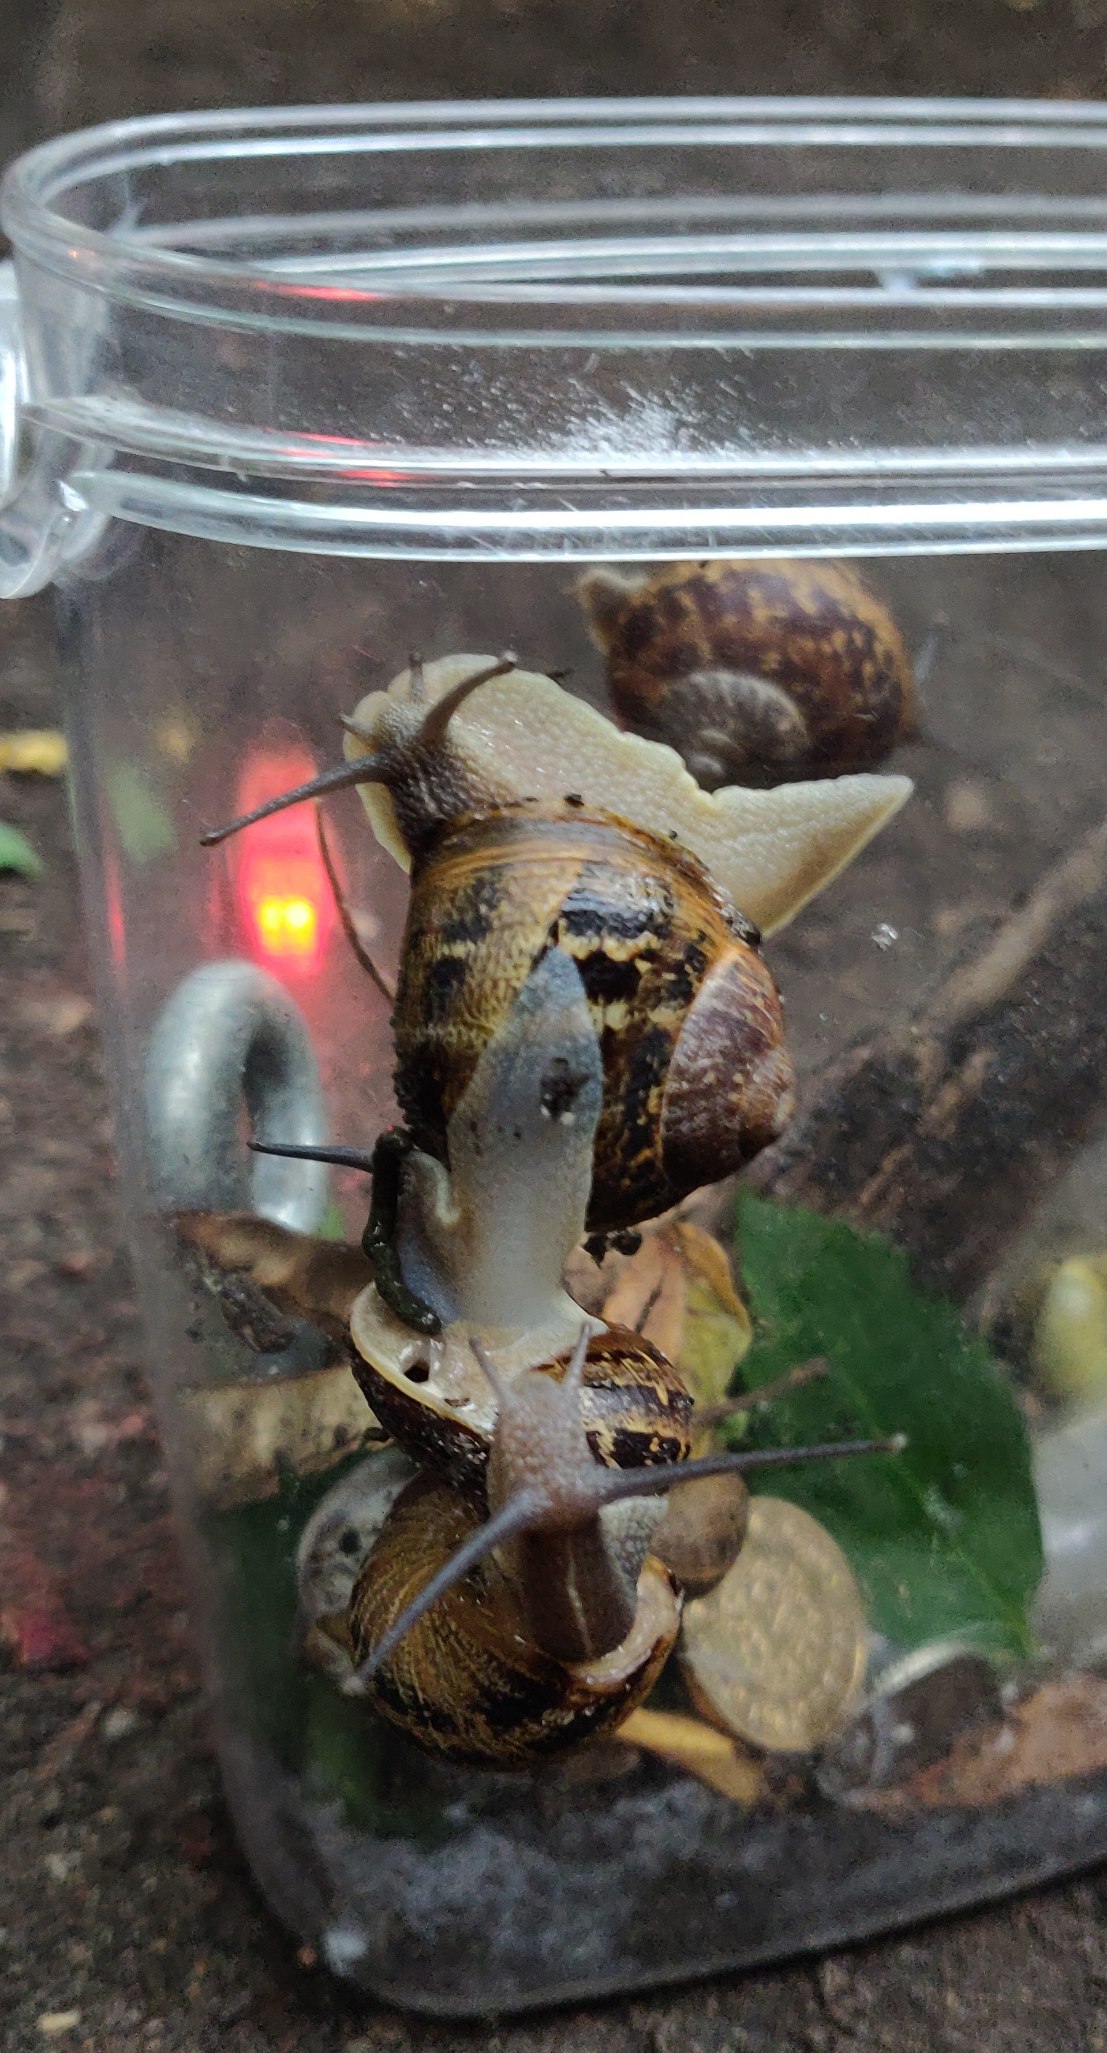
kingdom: Animalia
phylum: Mollusca
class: Gastropoda
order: Stylommatophora
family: Helicidae
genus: Cornu
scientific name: Cornu aspersum
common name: Plettet voldsnegl
